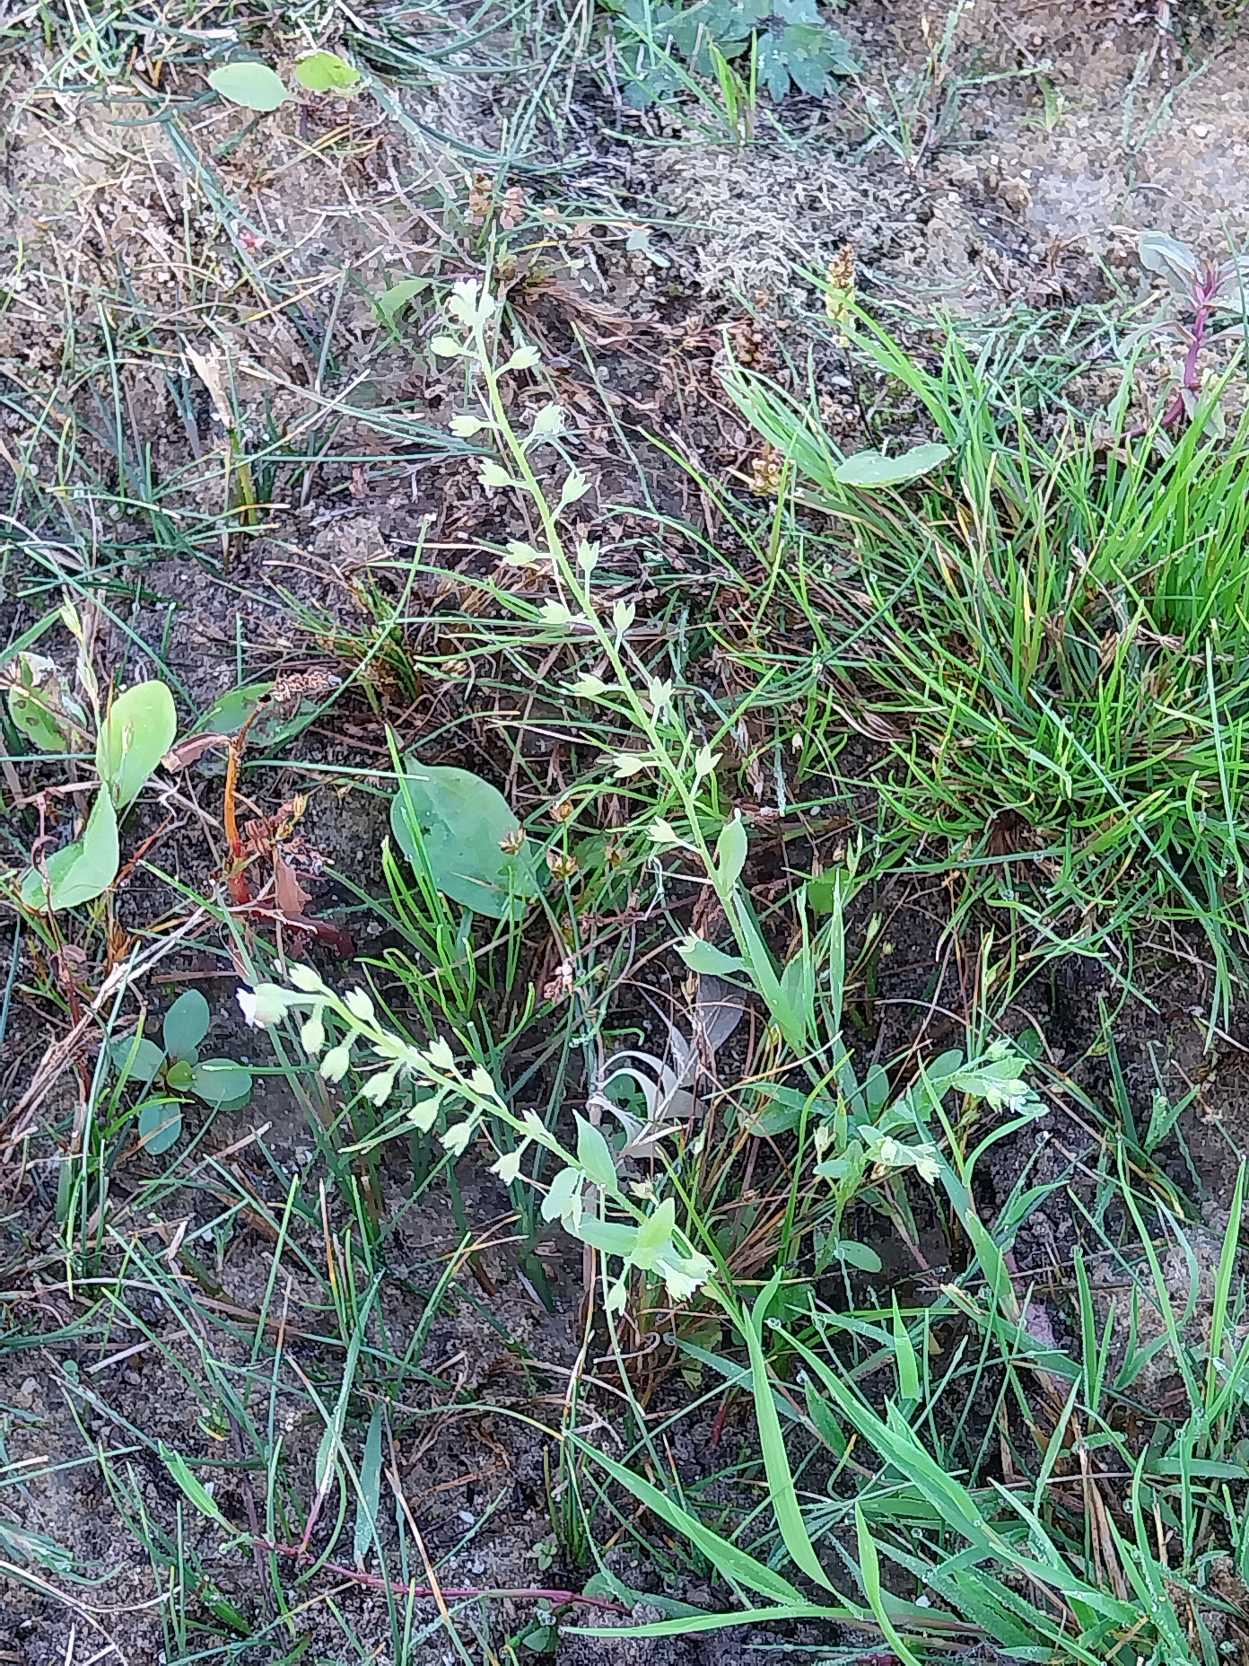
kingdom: Plantae
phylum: Tracheophyta
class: Magnoliopsida
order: Boraginales
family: Boraginaceae
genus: Myosotis
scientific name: Myosotis laxa
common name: Sump-forglemmigej
